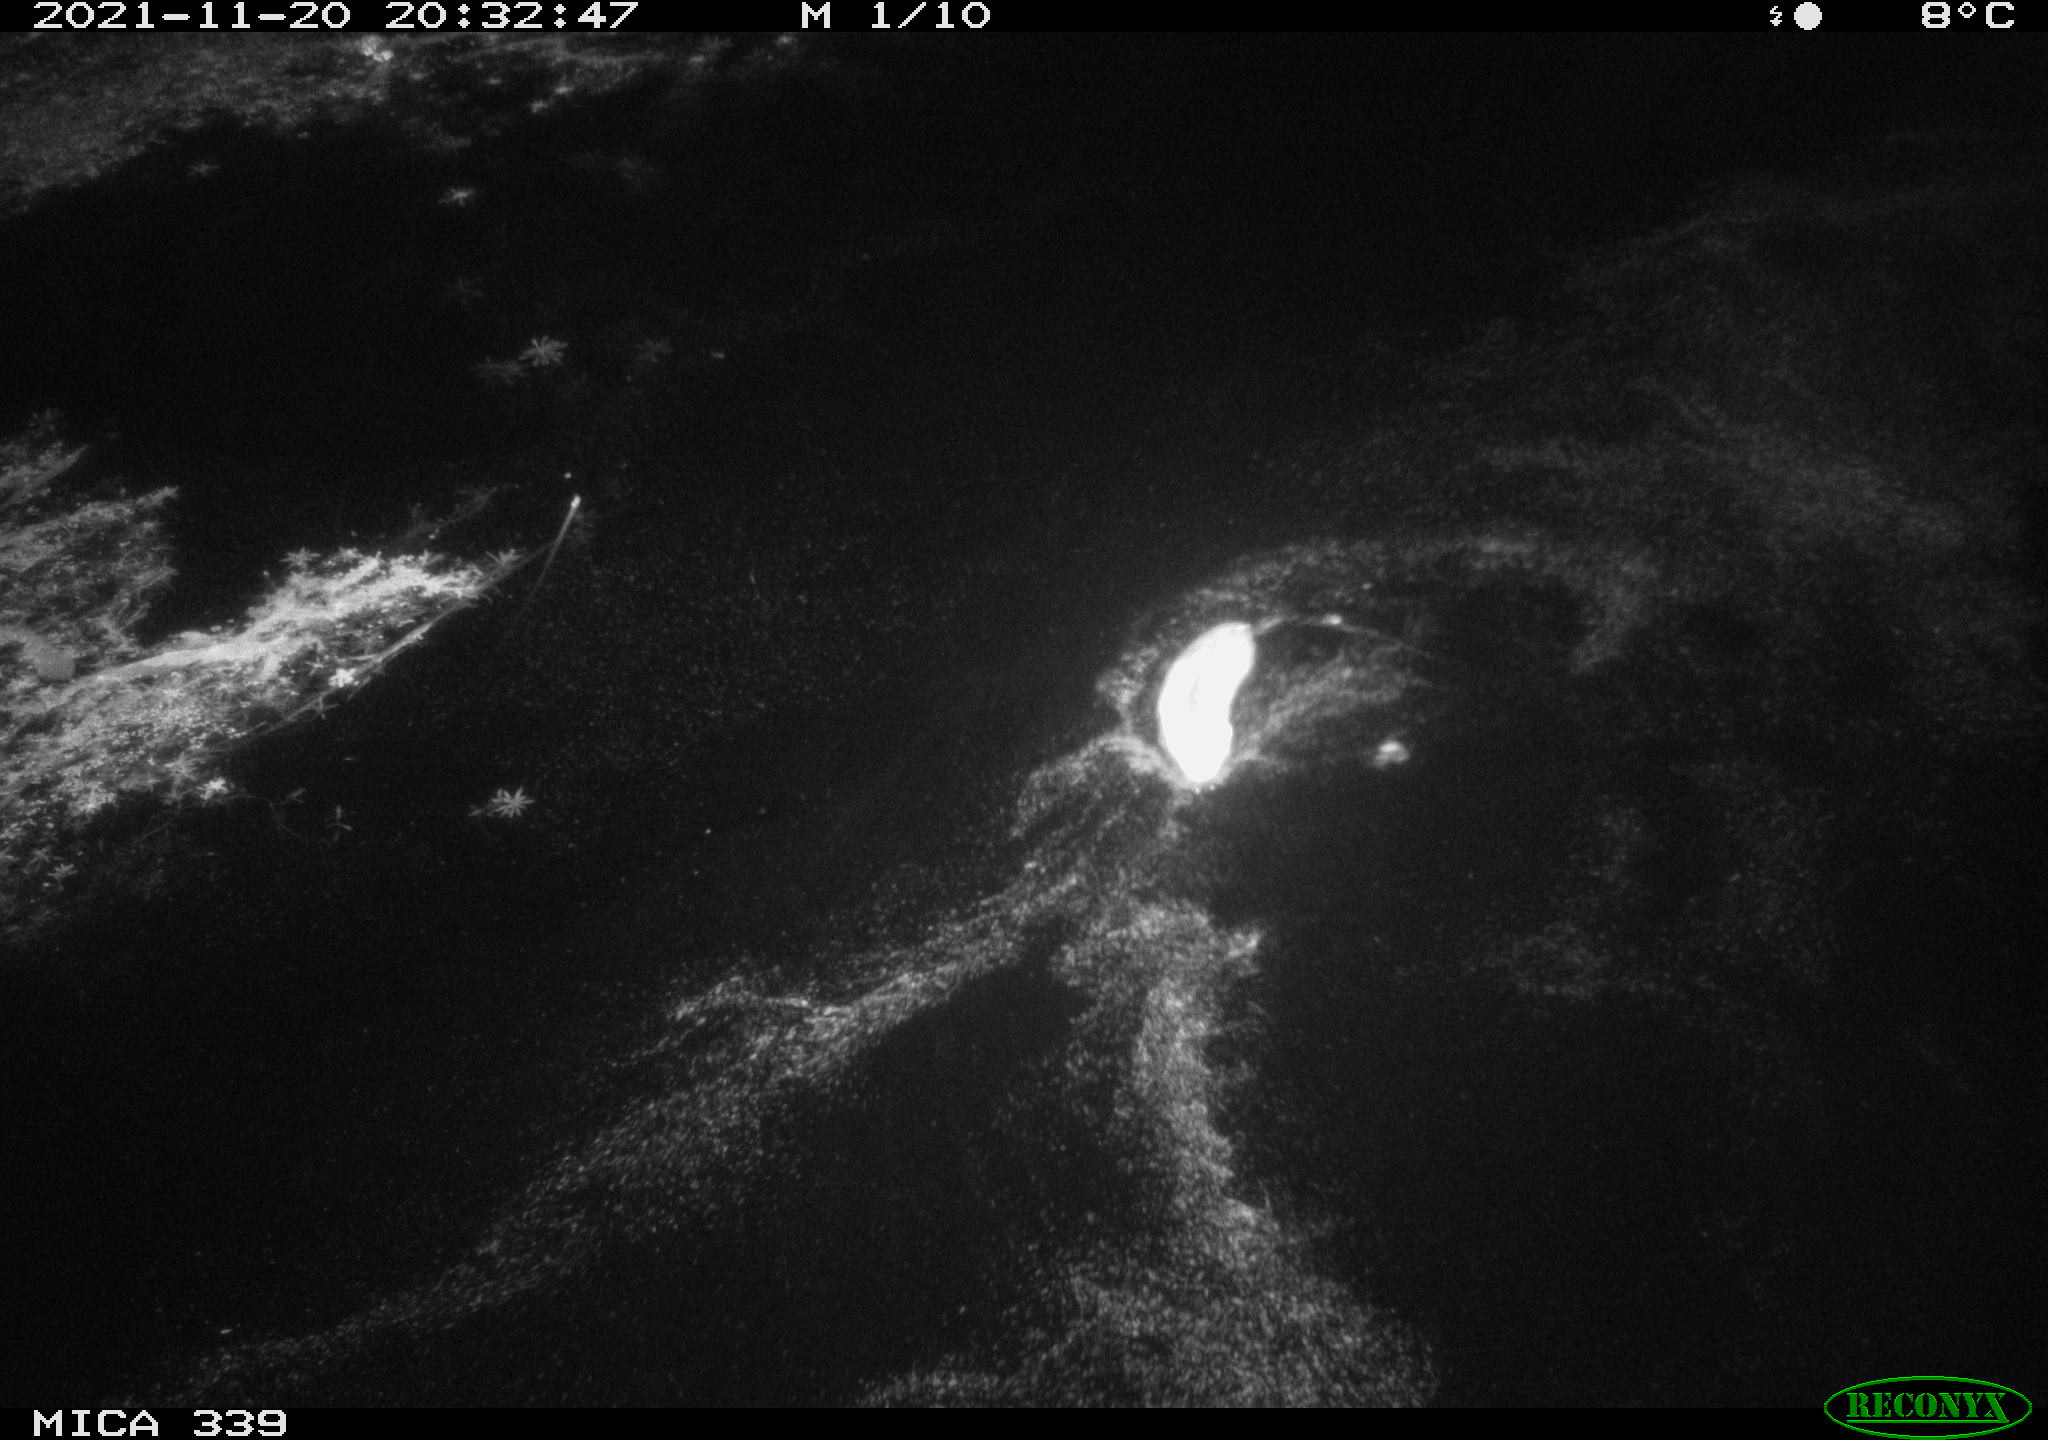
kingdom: Animalia
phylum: Chordata
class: Mammalia
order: Rodentia
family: Muridae
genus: Rattus
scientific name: Rattus norvegicus
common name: Brown rat
